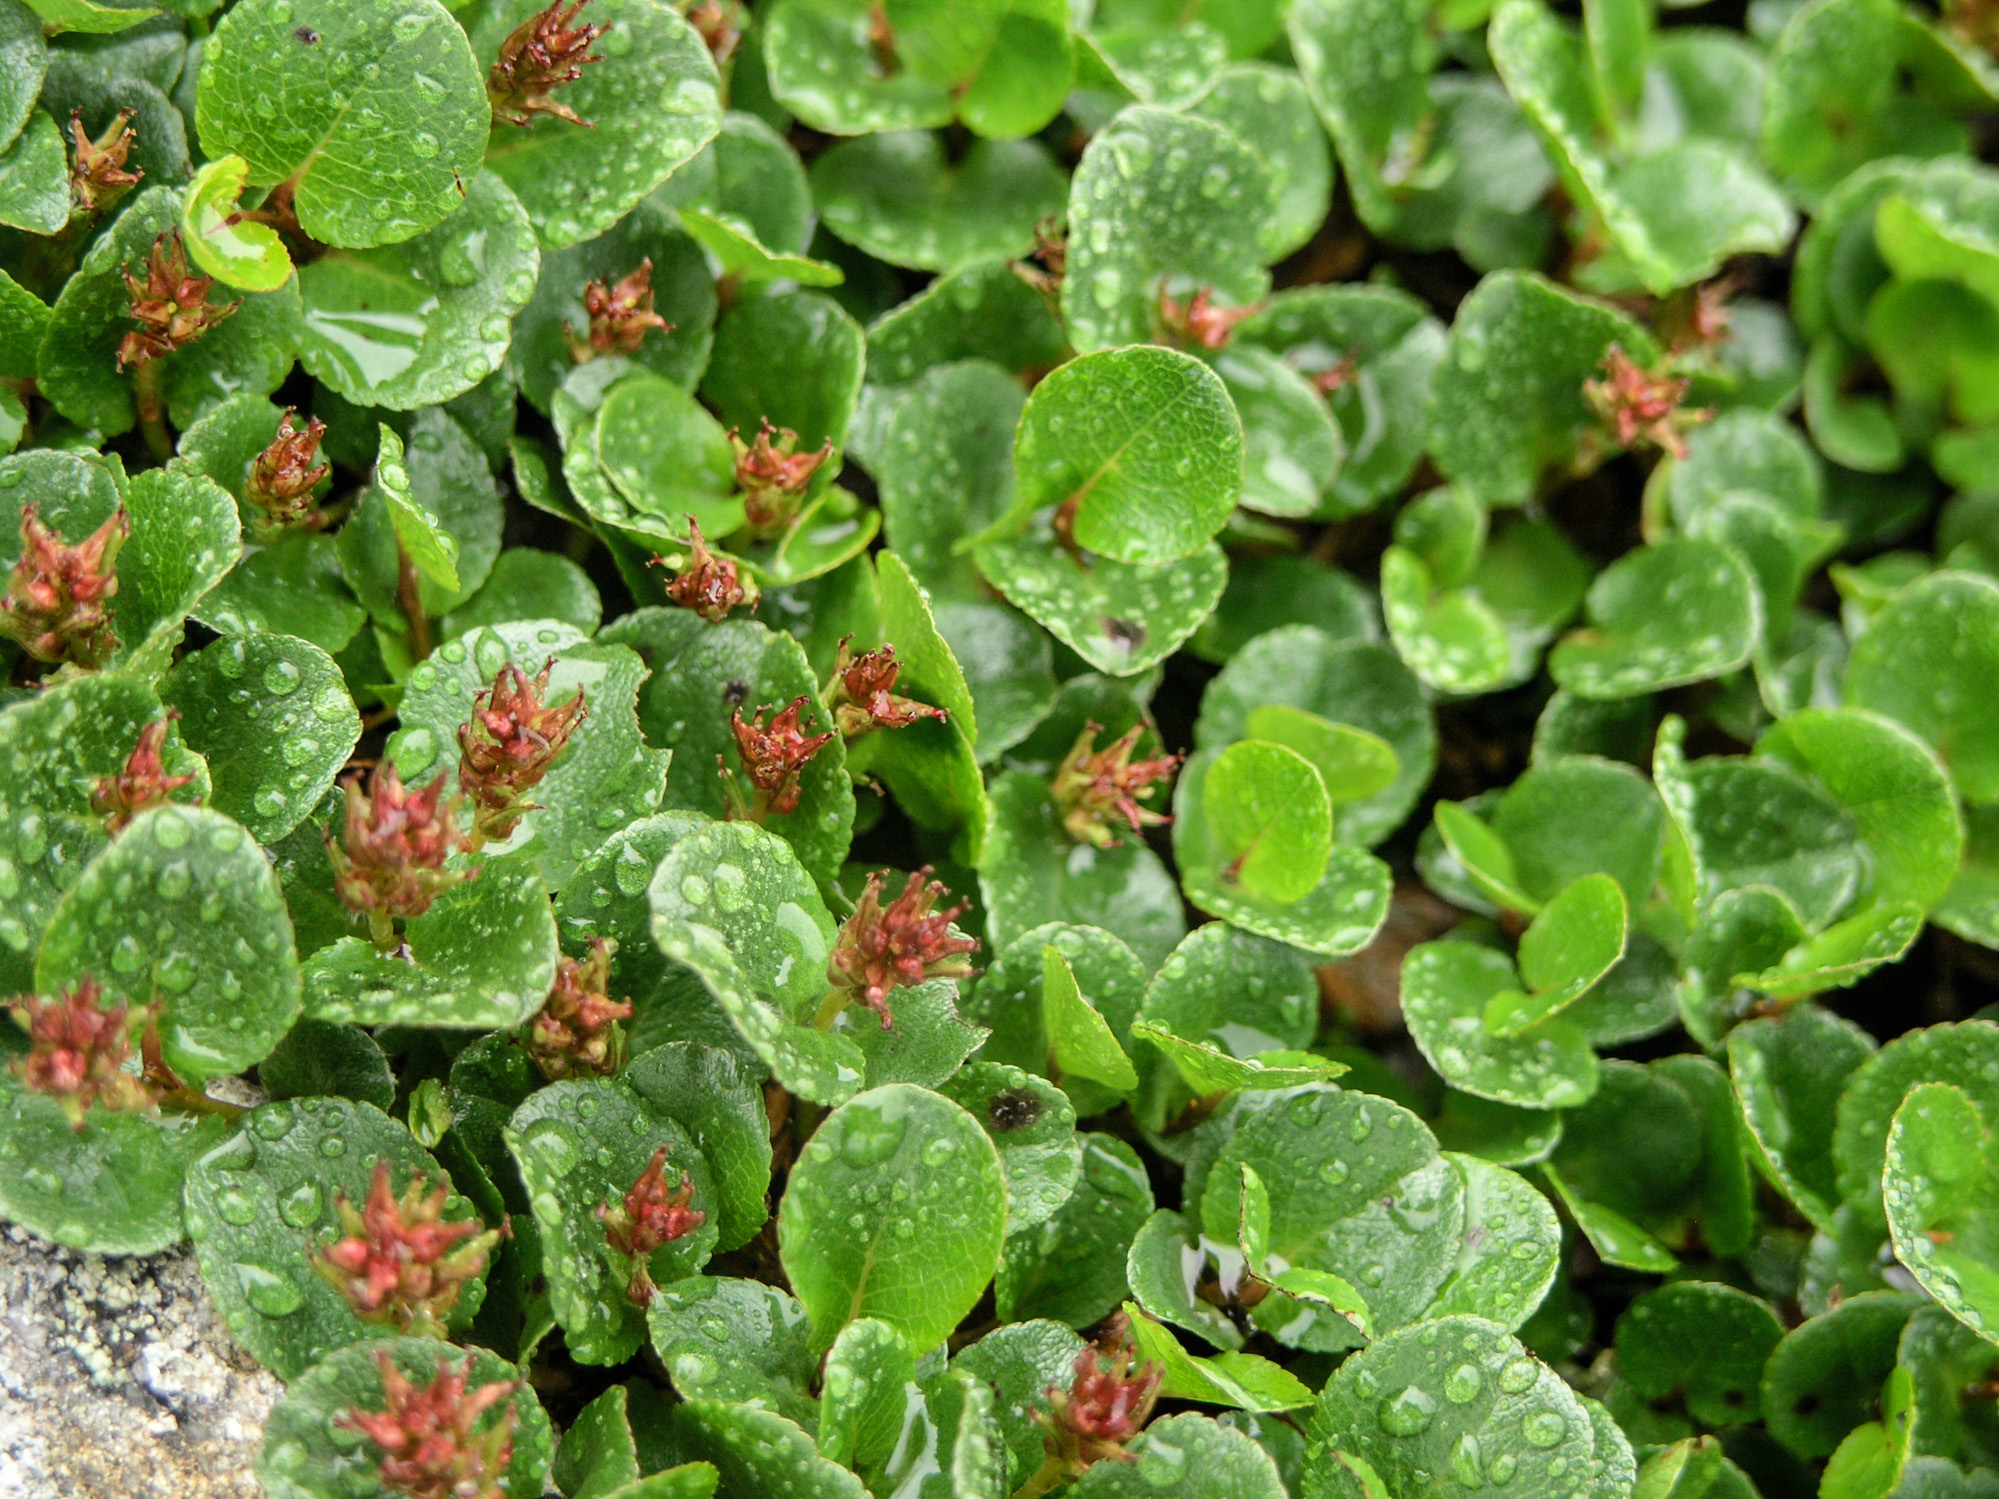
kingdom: Plantae
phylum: Tracheophyta
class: Magnoliopsida
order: Malpighiales
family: Salicaceae
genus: Salix
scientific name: Salix herbacea
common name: Dwarf willow
